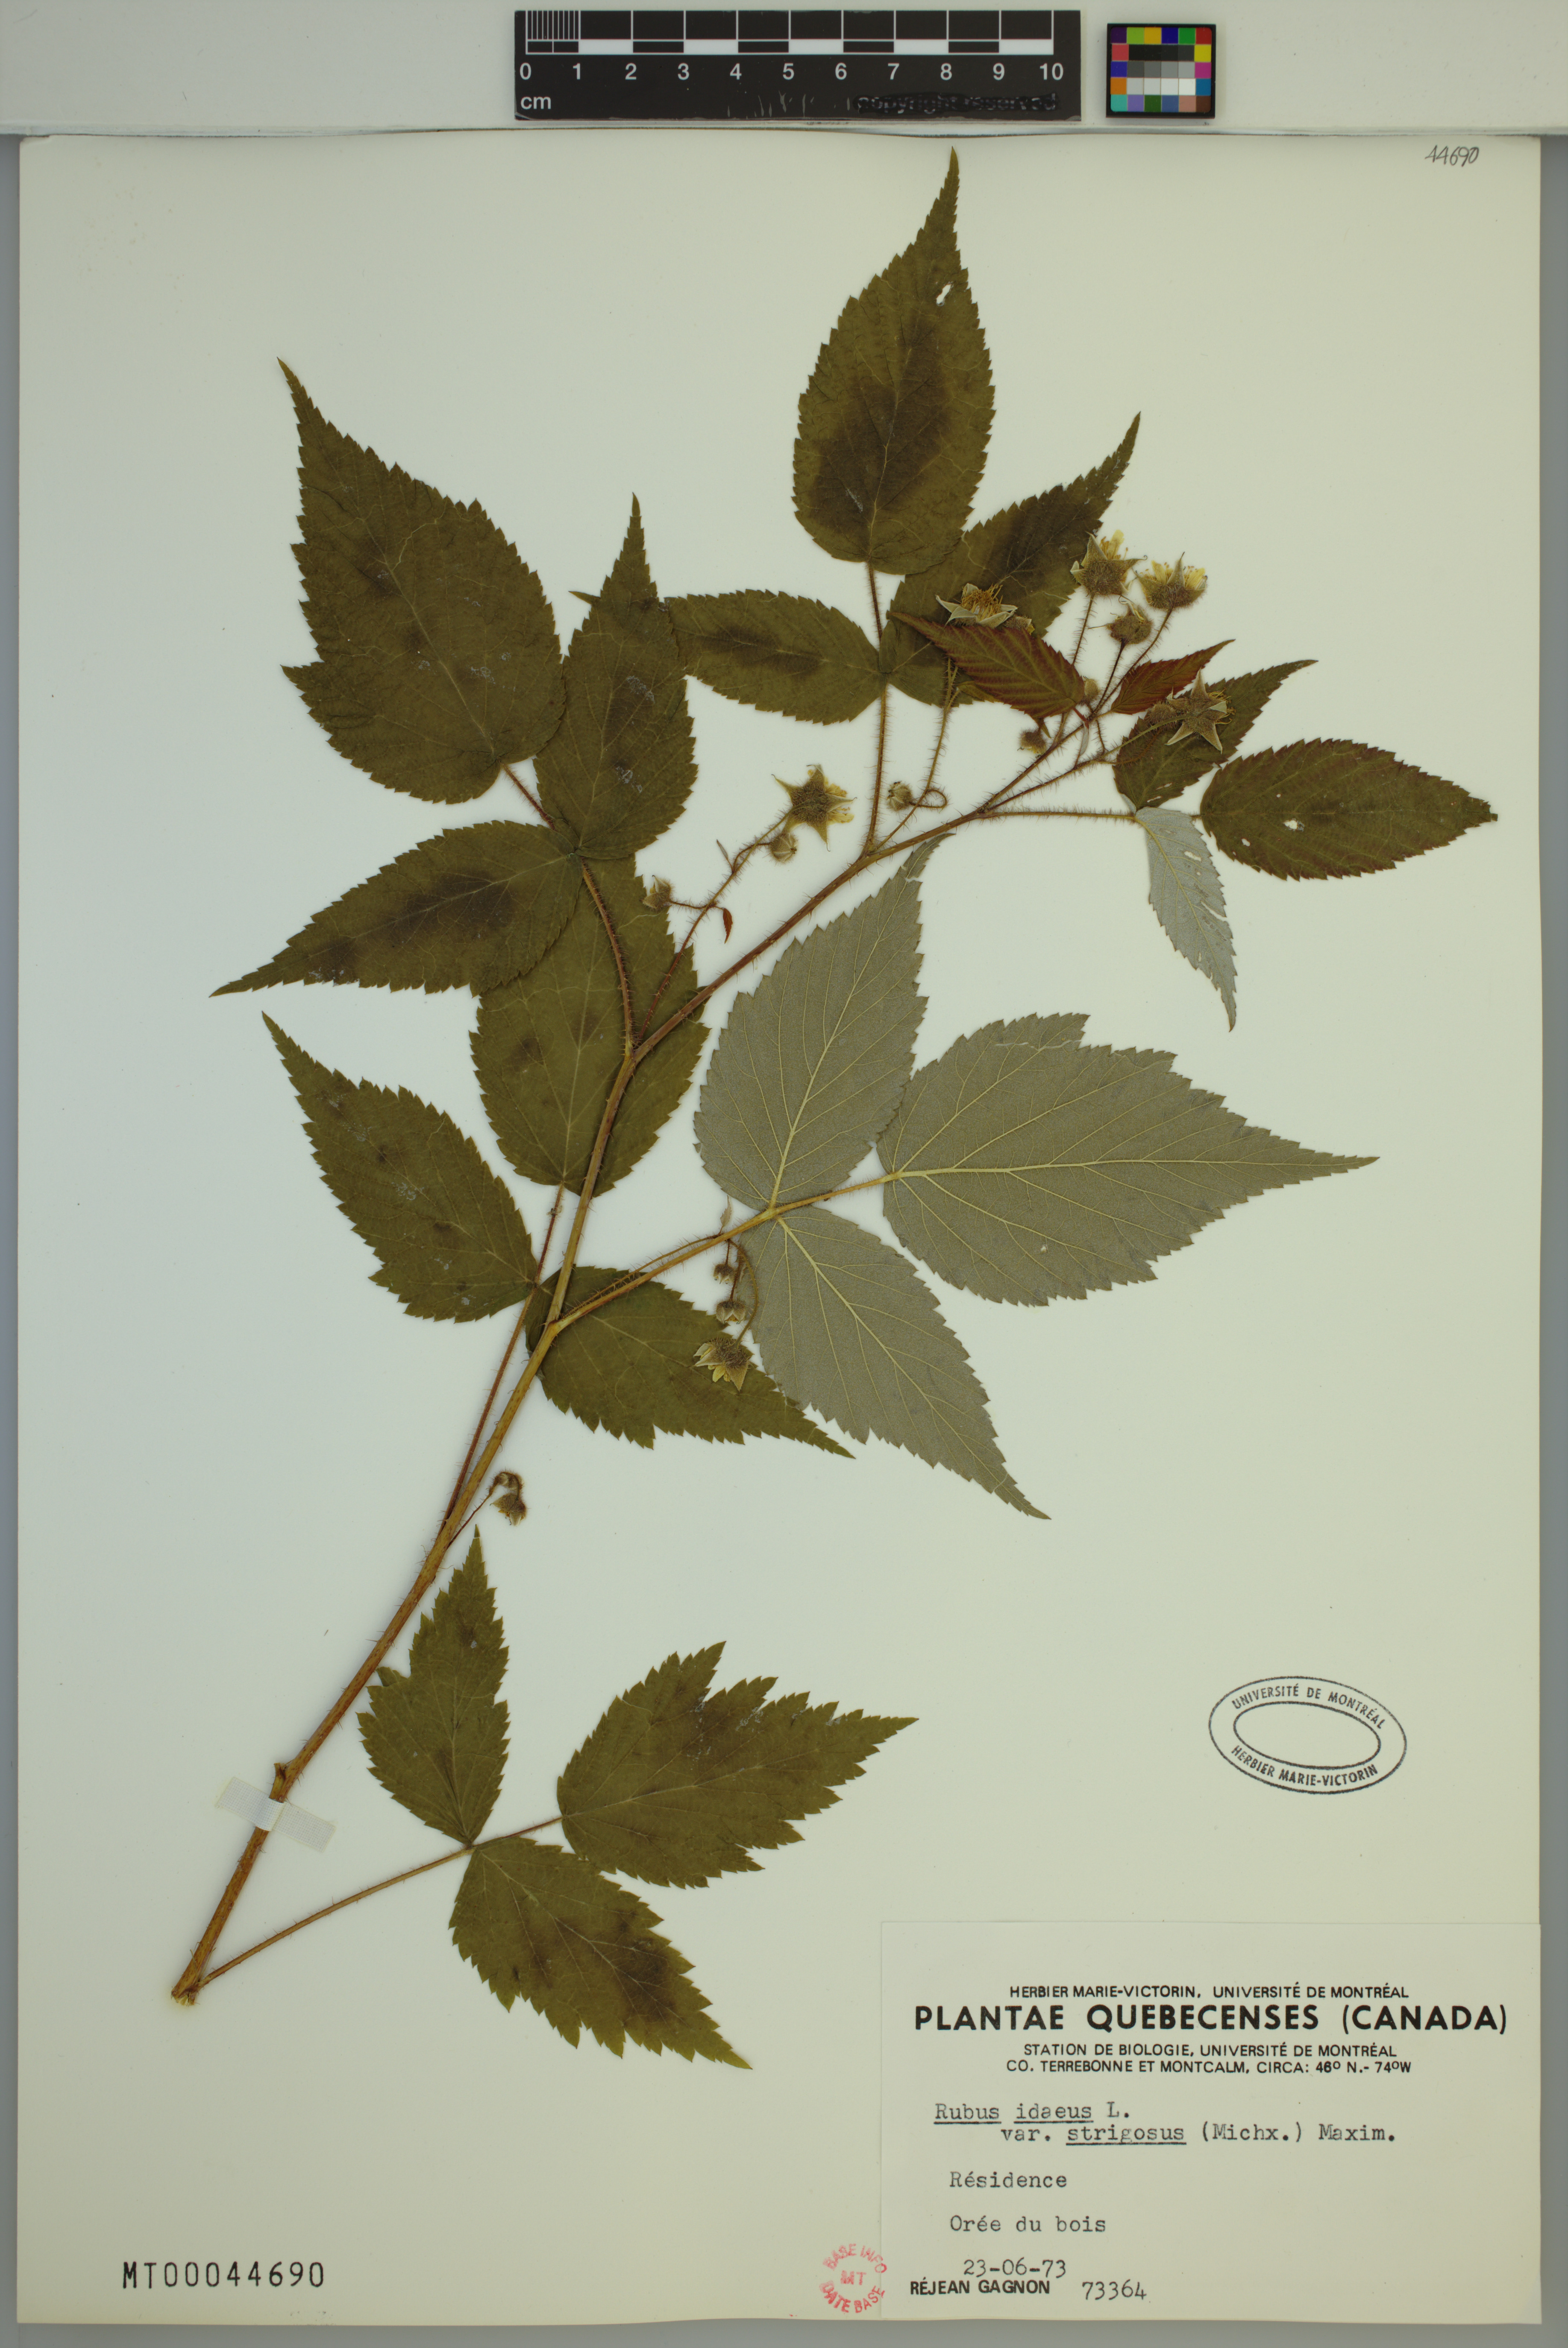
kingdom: Plantae
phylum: Tracheophyta
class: Magnoliopsida
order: Rosales
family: Rosaceae
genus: Rubus
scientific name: Rubus sachalinensis
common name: Red raspberry
